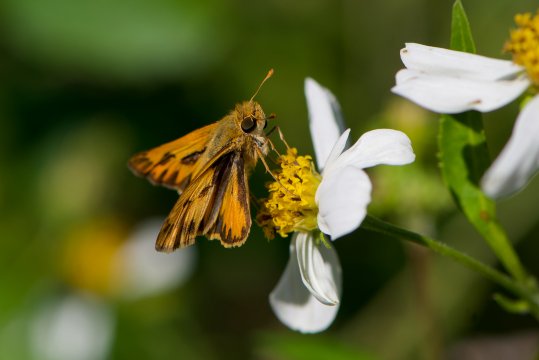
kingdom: Animalia
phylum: Arthropoda
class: Insecta
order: Lepidoptera
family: Hesperiidae
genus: Hylephila
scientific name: Hylephila phyleus
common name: Fiery Skipper
